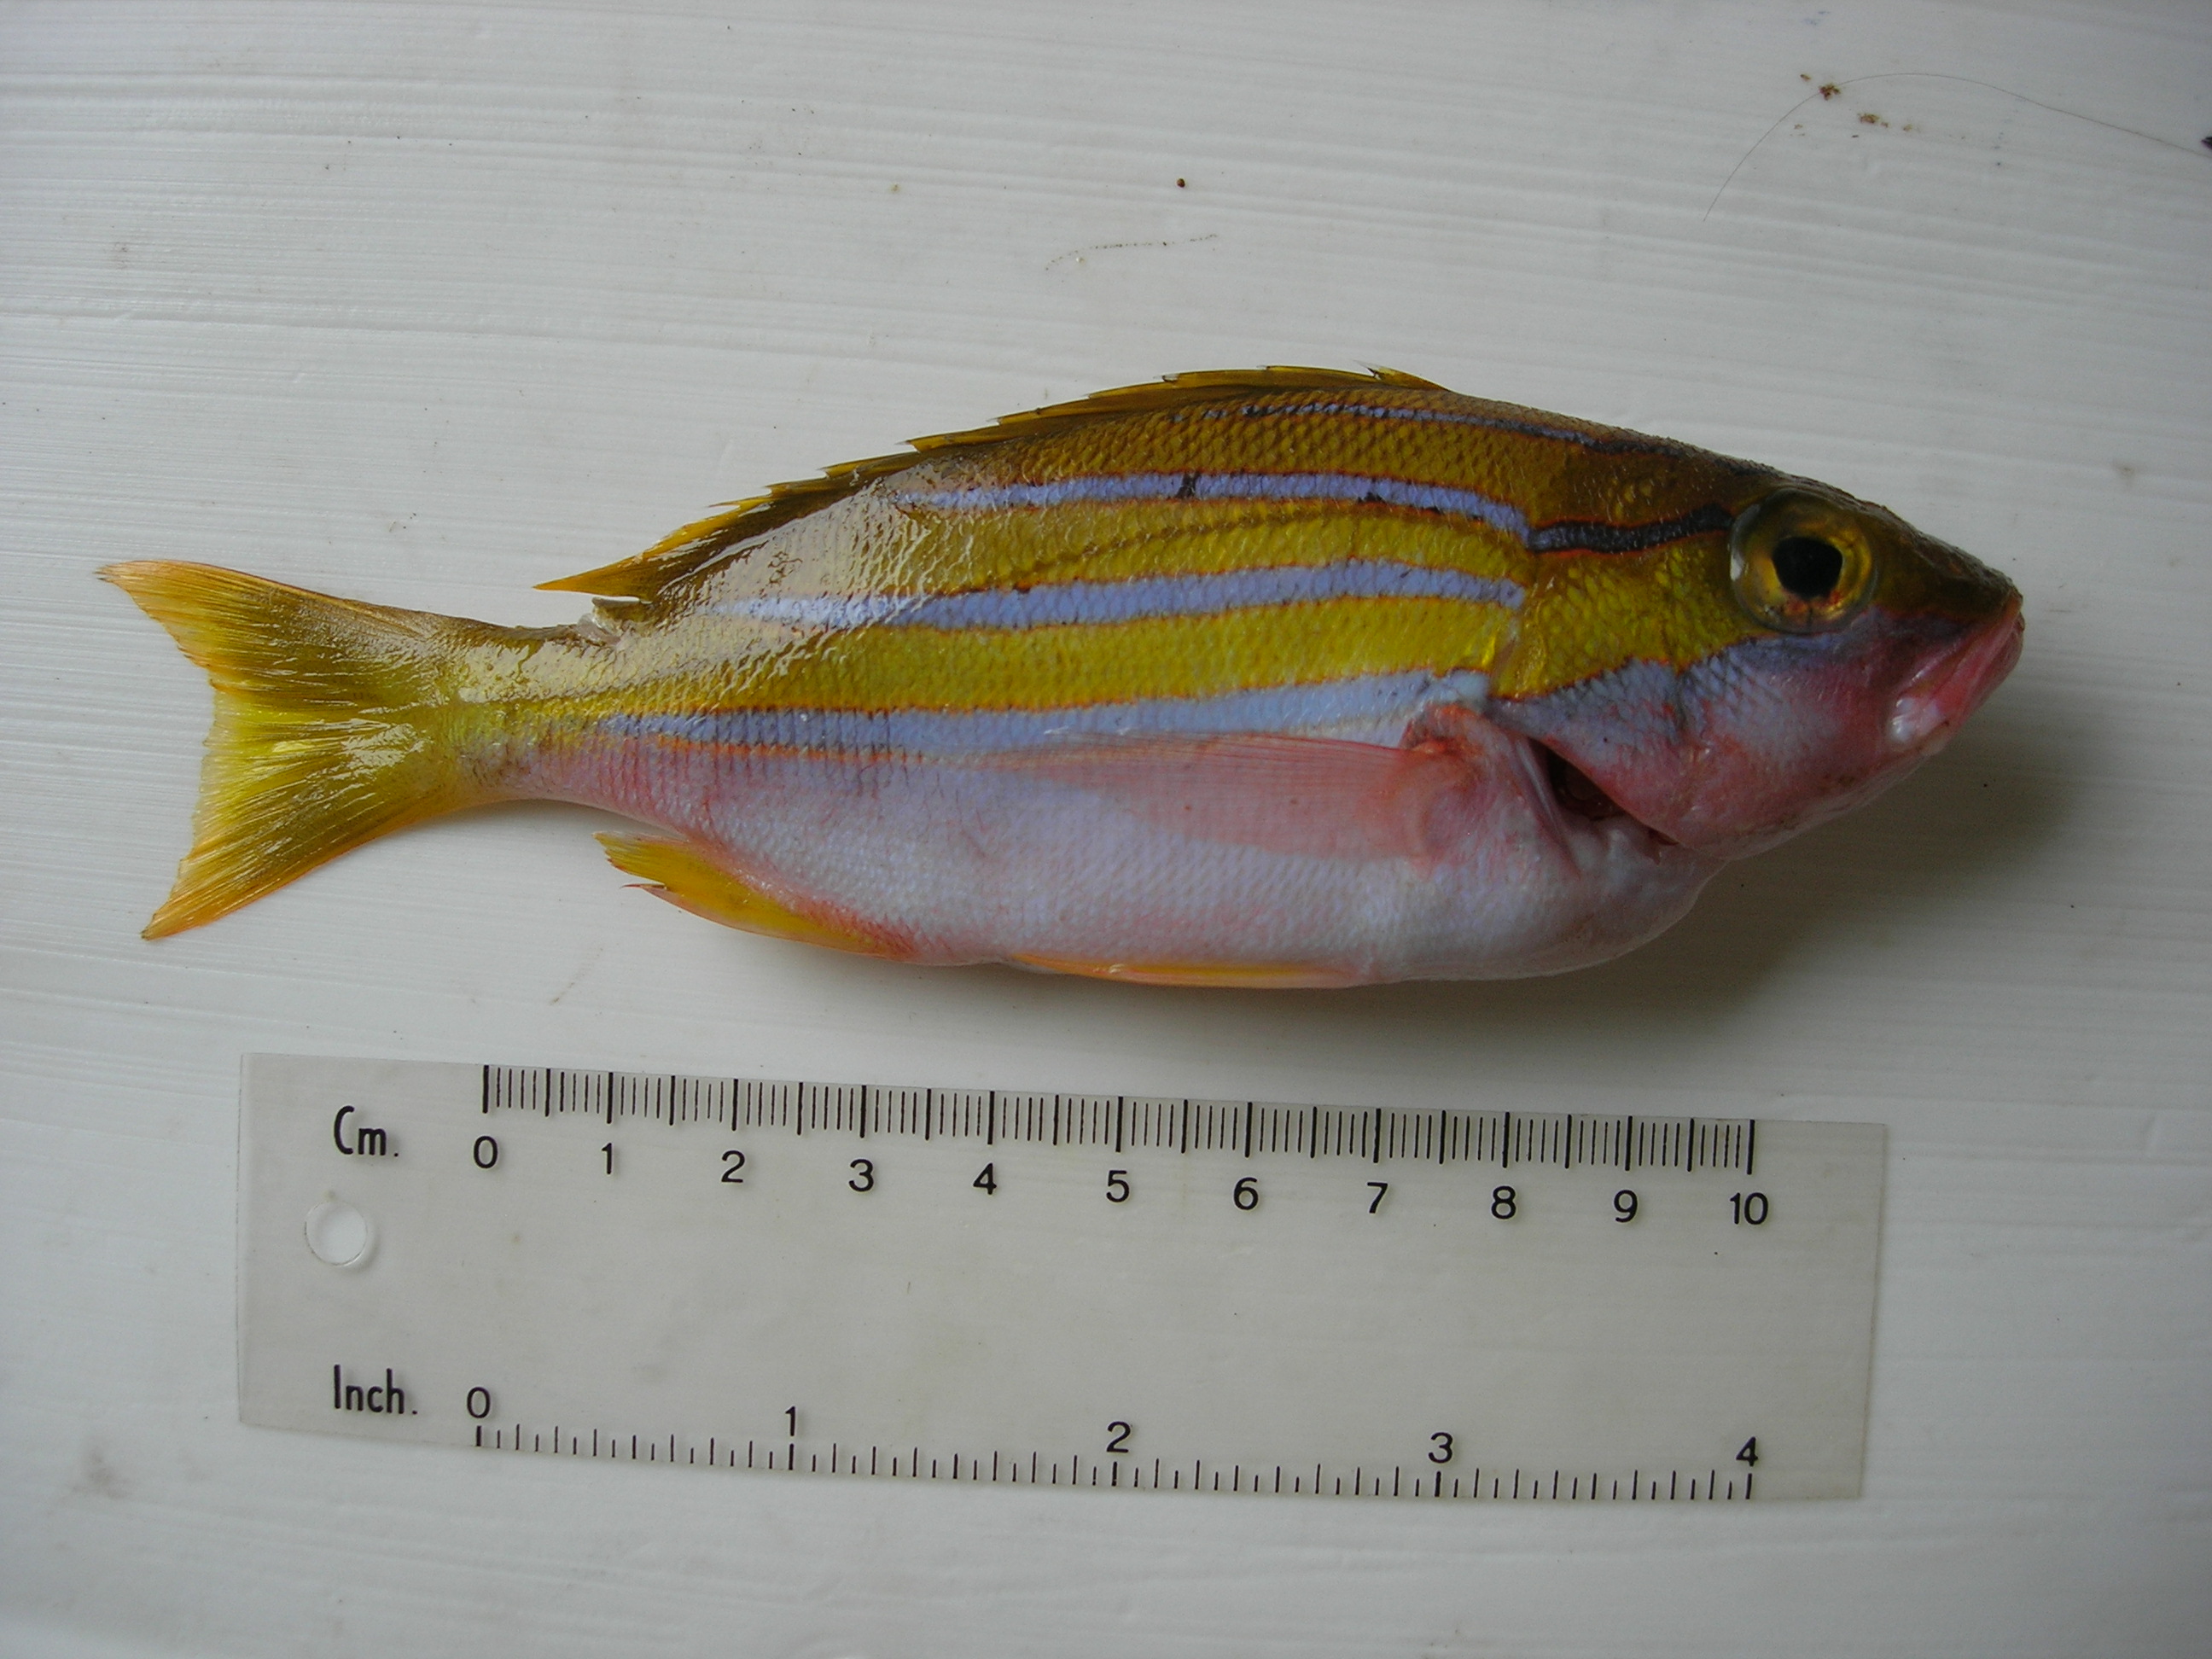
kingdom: Animalia
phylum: Chordata
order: Perciformes
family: Lutjanidae
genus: Lutjanus
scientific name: Lutjanus bengalensis
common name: Bengal snapper
